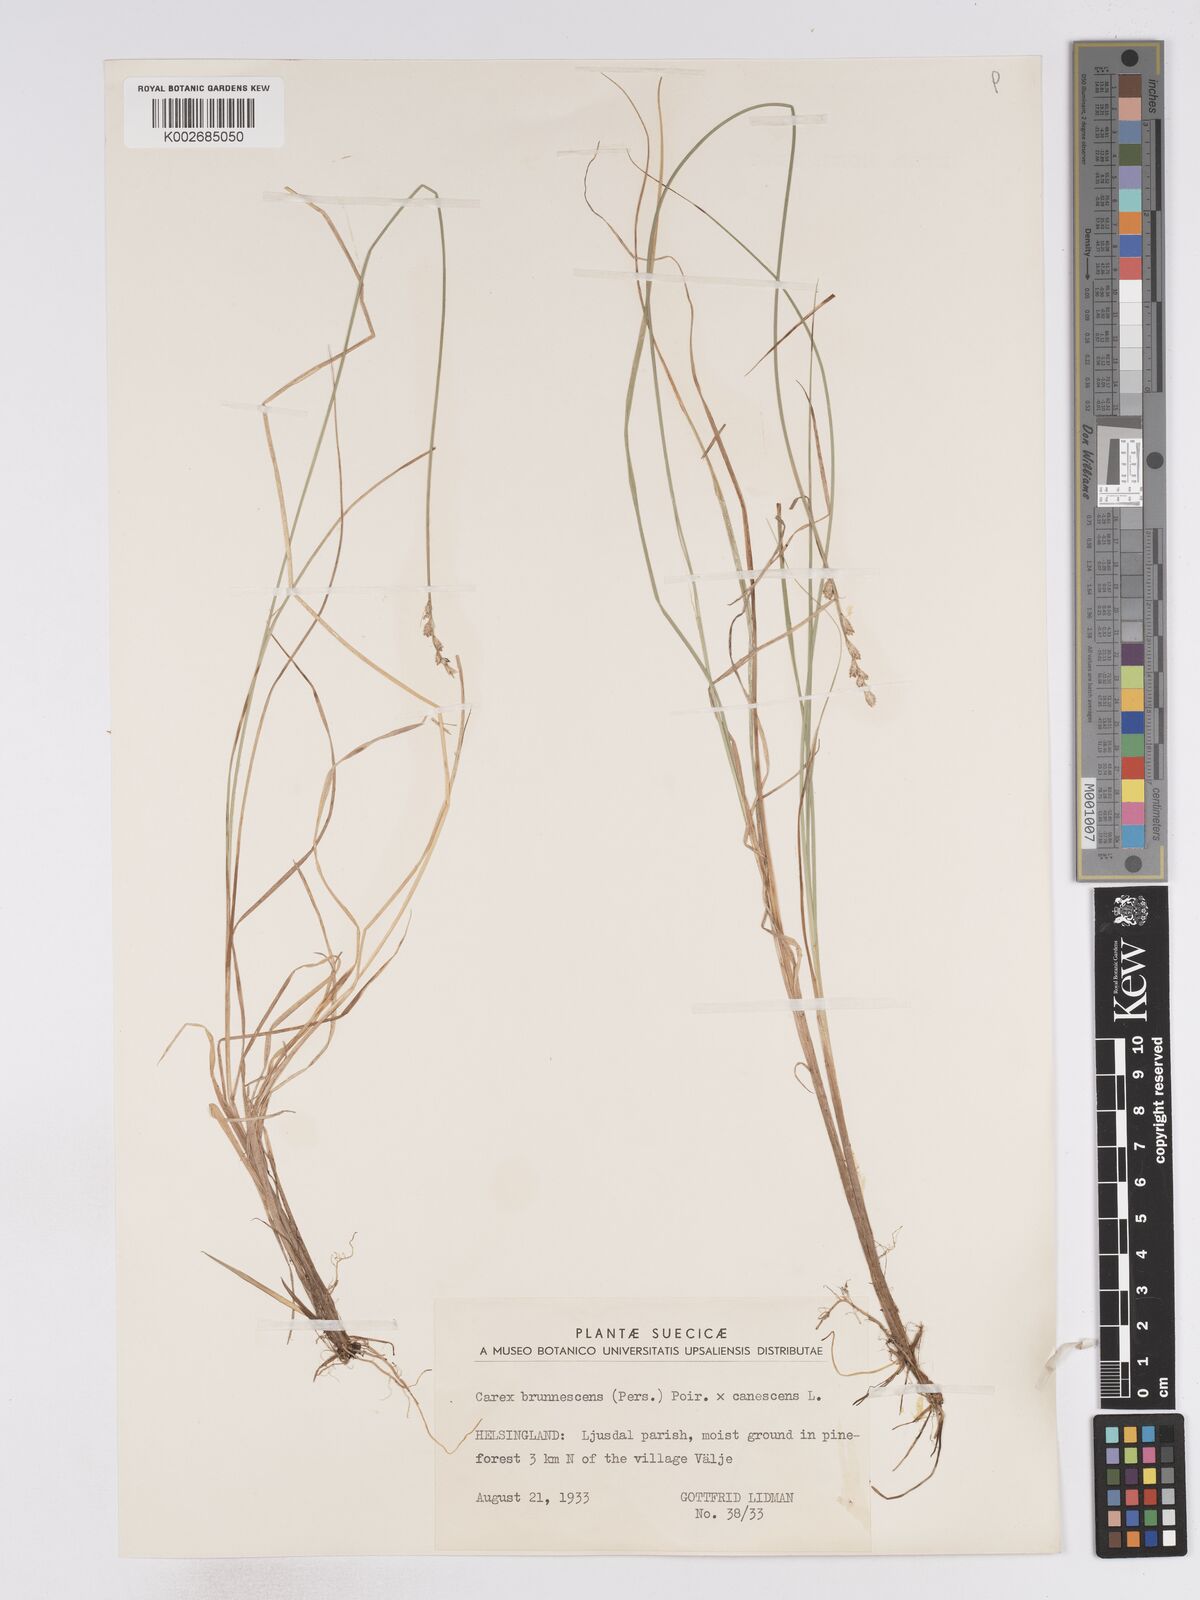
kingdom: Plantae
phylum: Tracheophyta
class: Liliopsida
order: Poales
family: Cyperaceae
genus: Carex
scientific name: Carex brunnescens
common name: Brown sedge
